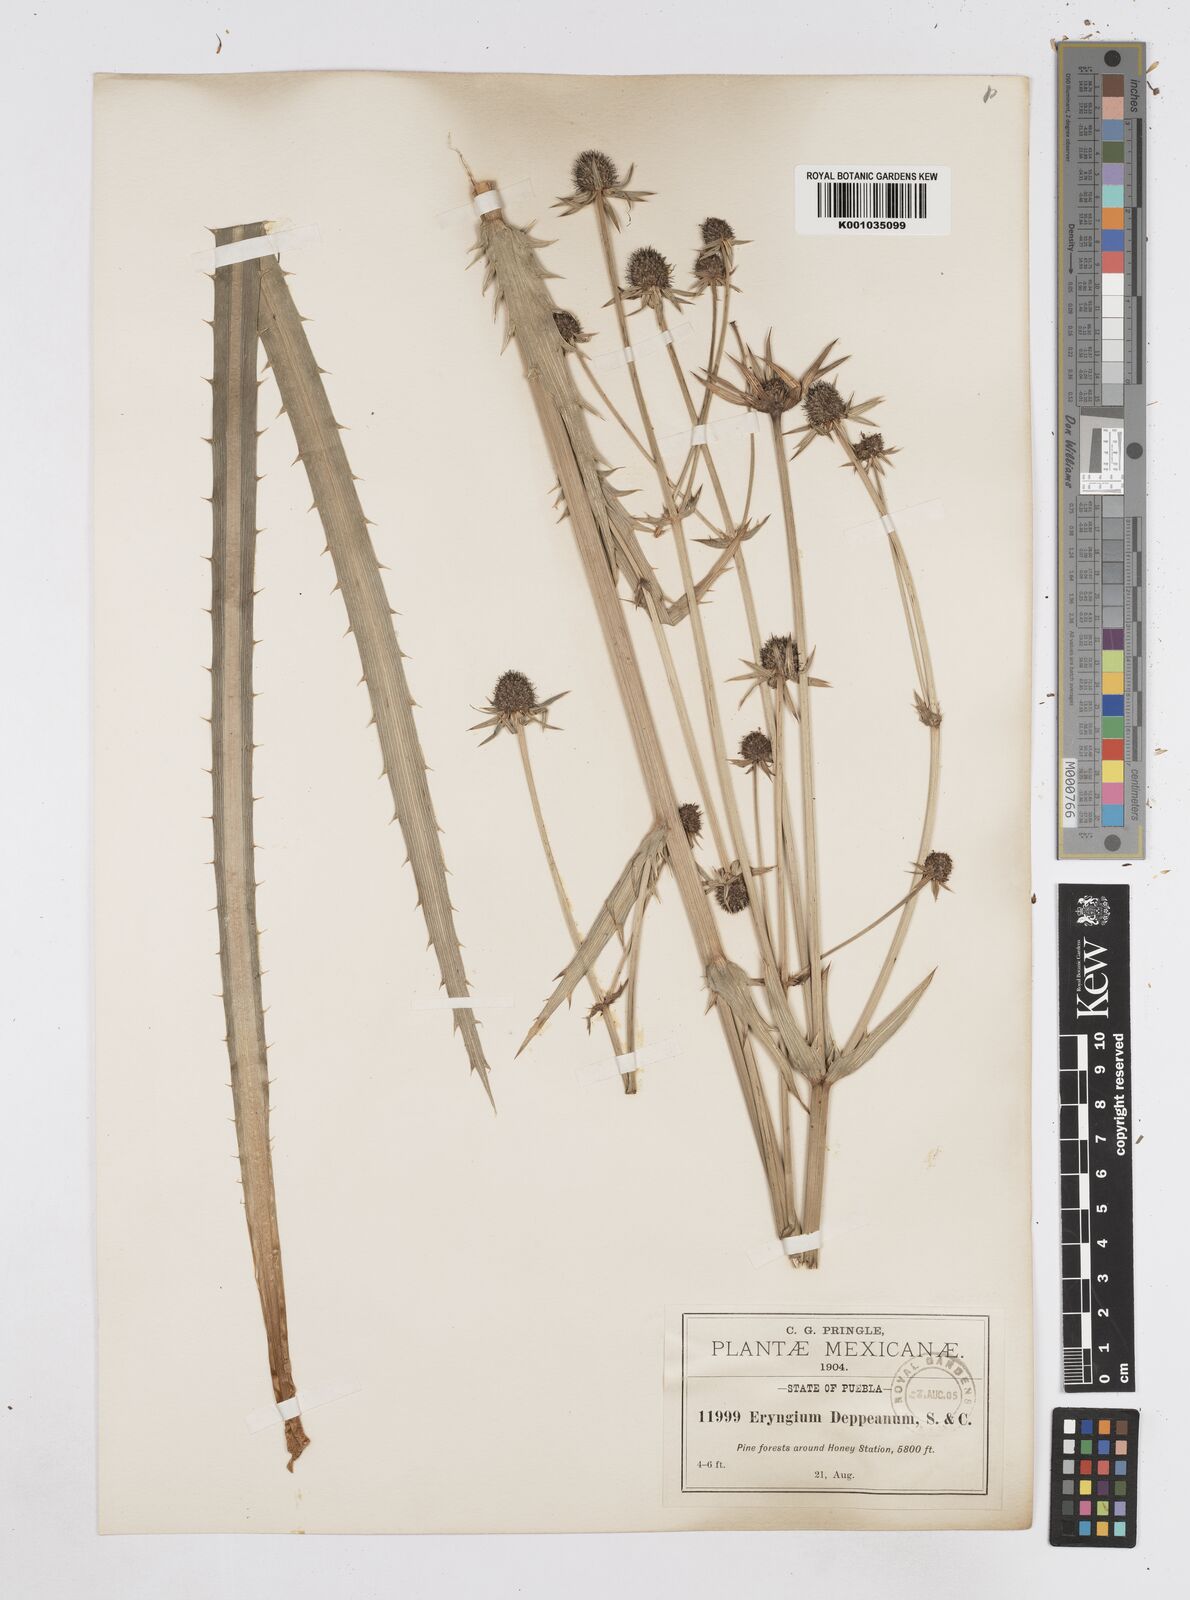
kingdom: Plantae
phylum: Tracheophyta
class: Magnoliopsida
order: Apiales
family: Apiaceae
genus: Eryngium
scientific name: Eryngium
